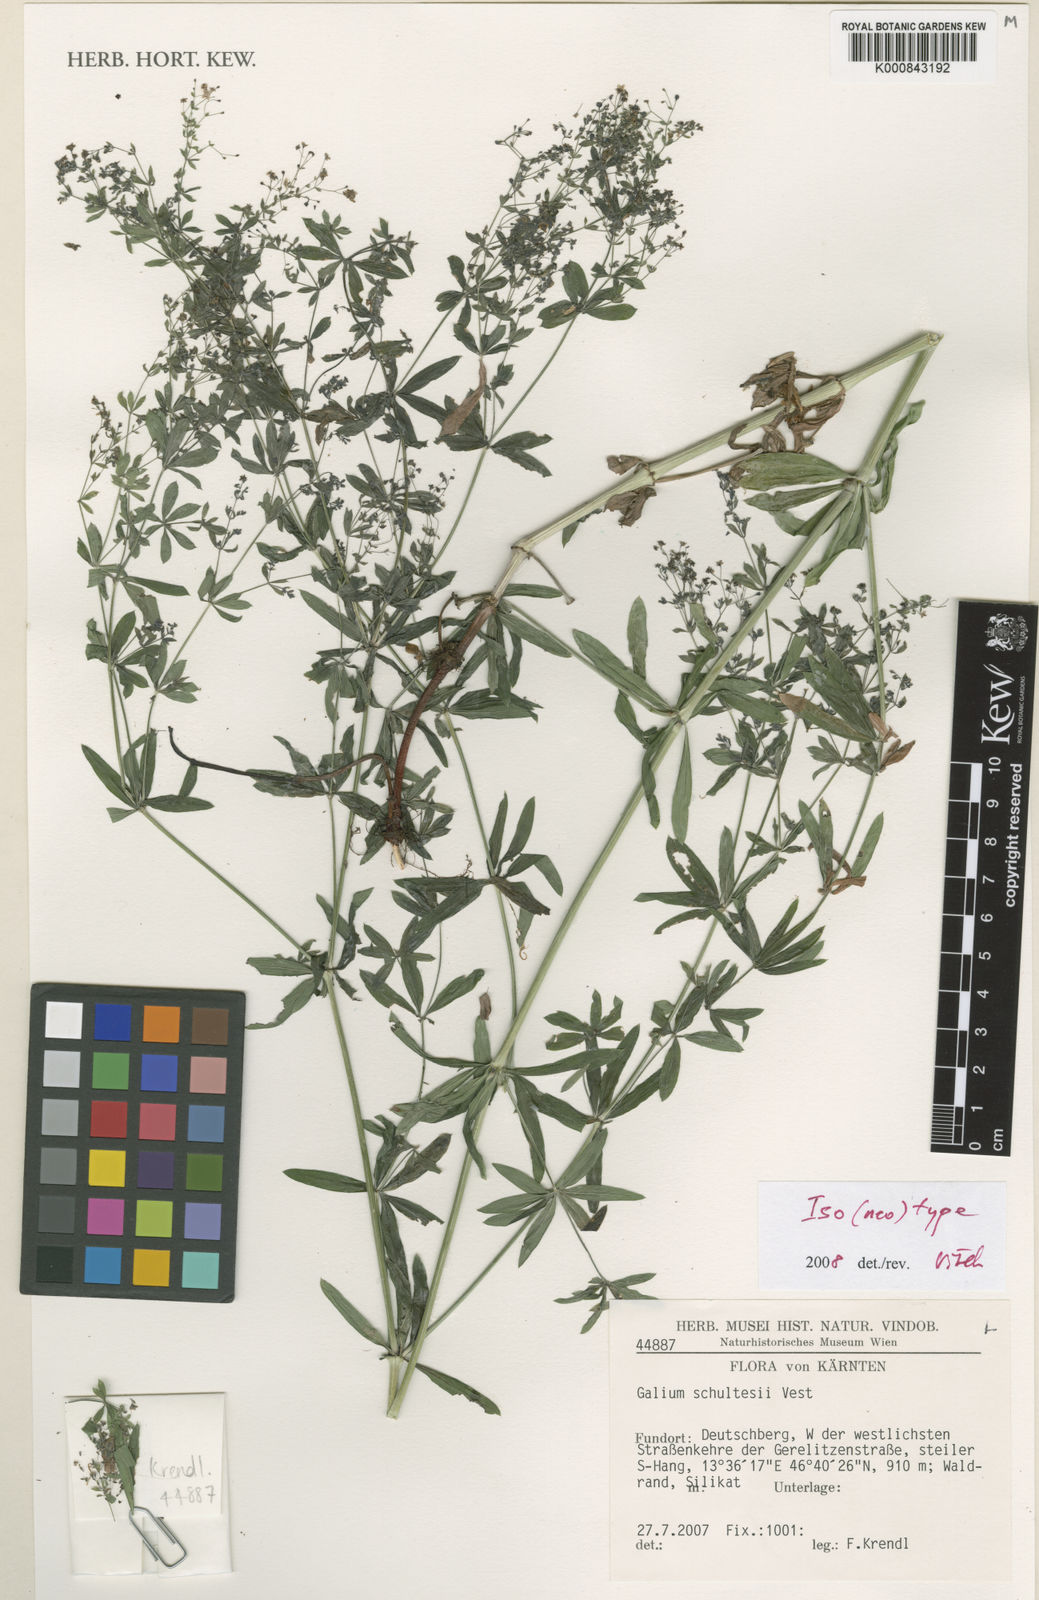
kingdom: Plantae
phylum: Tracheophyta
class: Magnoliopsida
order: Gentianales
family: Rubiaceae
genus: Galium
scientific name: Galium intermedium
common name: Bedstraw
